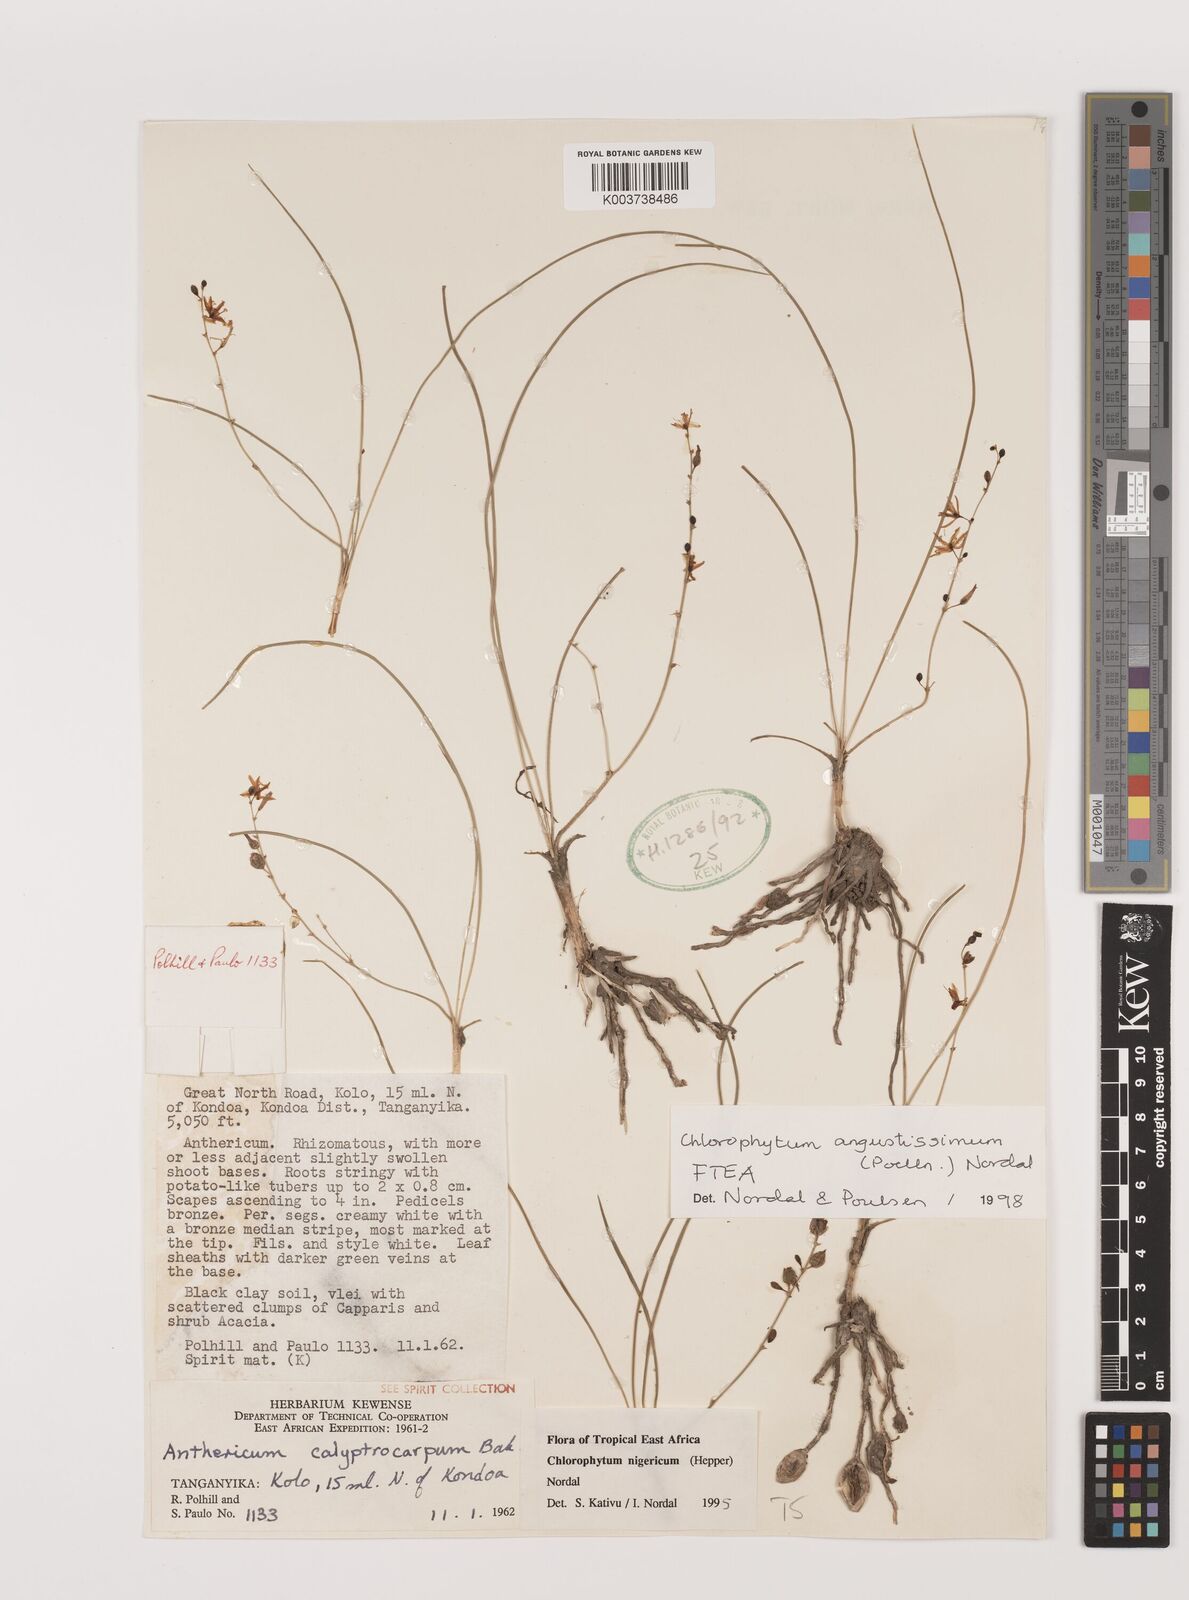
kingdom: Plantae
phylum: Tracheophyta
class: Liliopsida
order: Asparagales
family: Asparagaceae
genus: Chlorophytum
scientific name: Chlorophytum angustissimum
